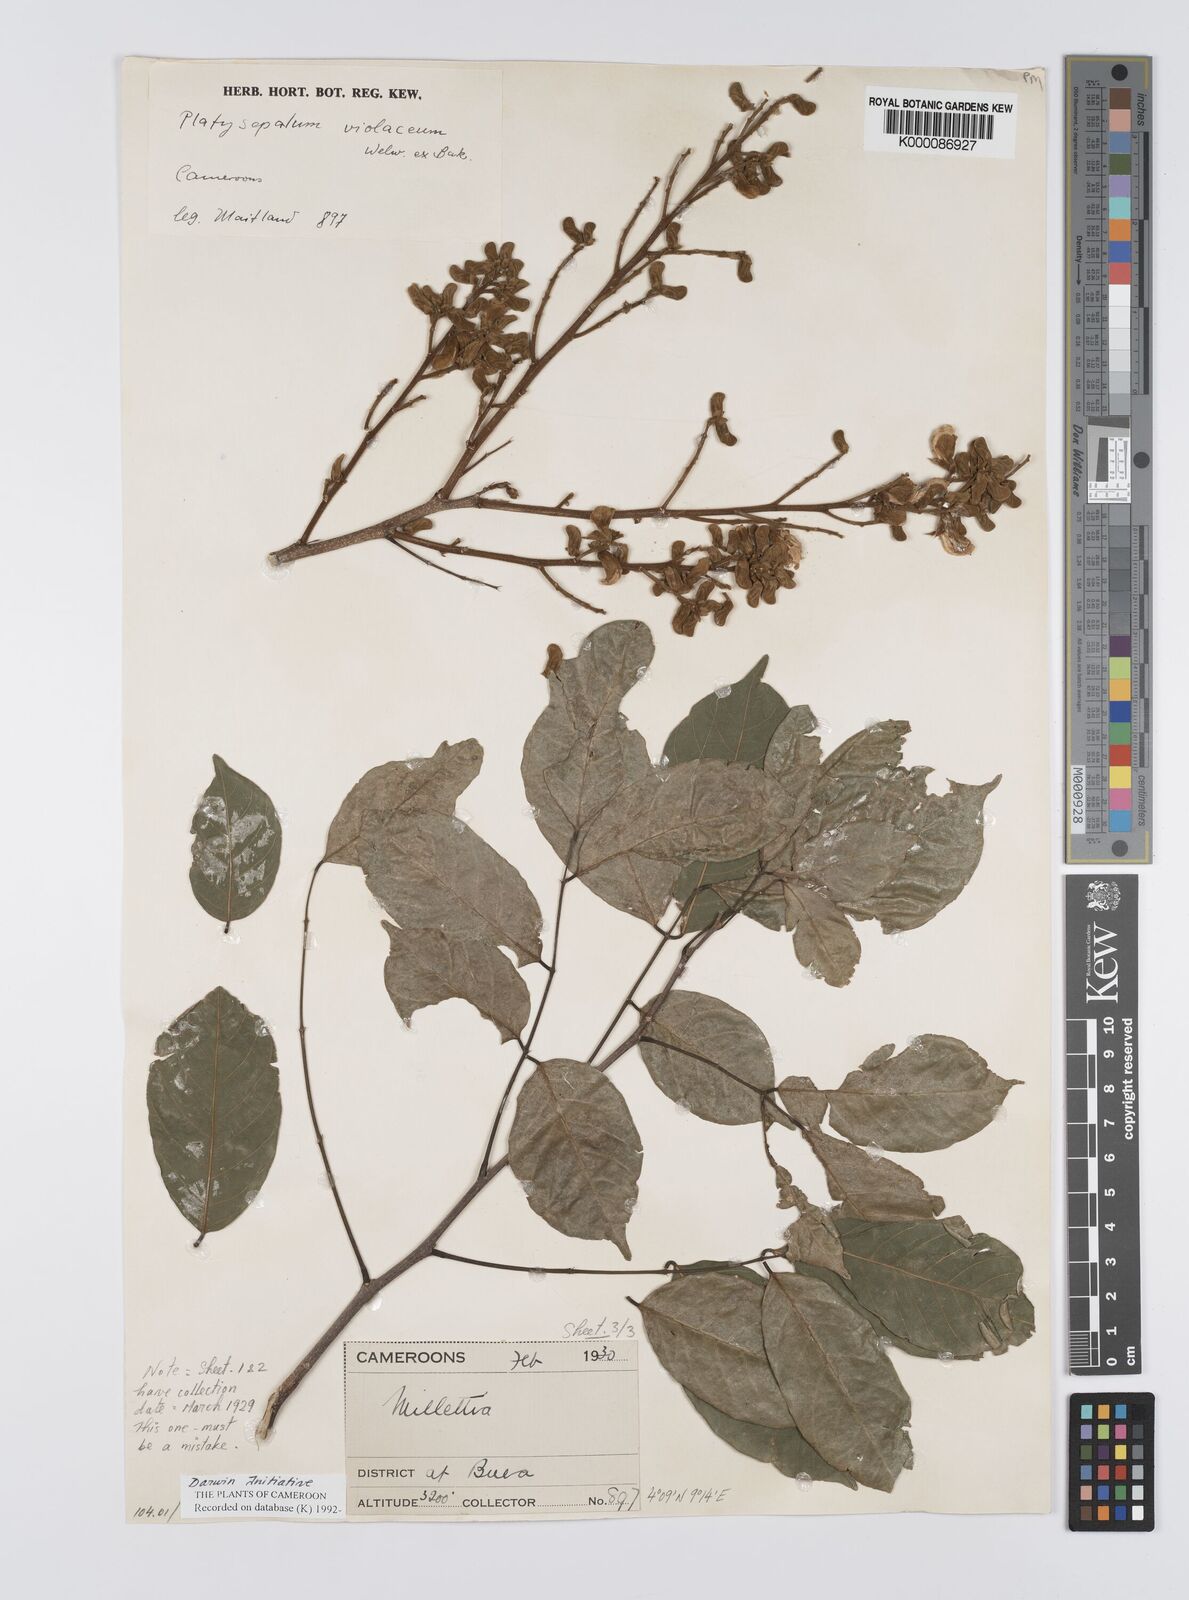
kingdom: Plantae
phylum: Tracheophyta
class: Magnoliopsida
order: Fabales
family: Fabaceae
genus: Platysepalum
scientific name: Platysepalum violaceum
